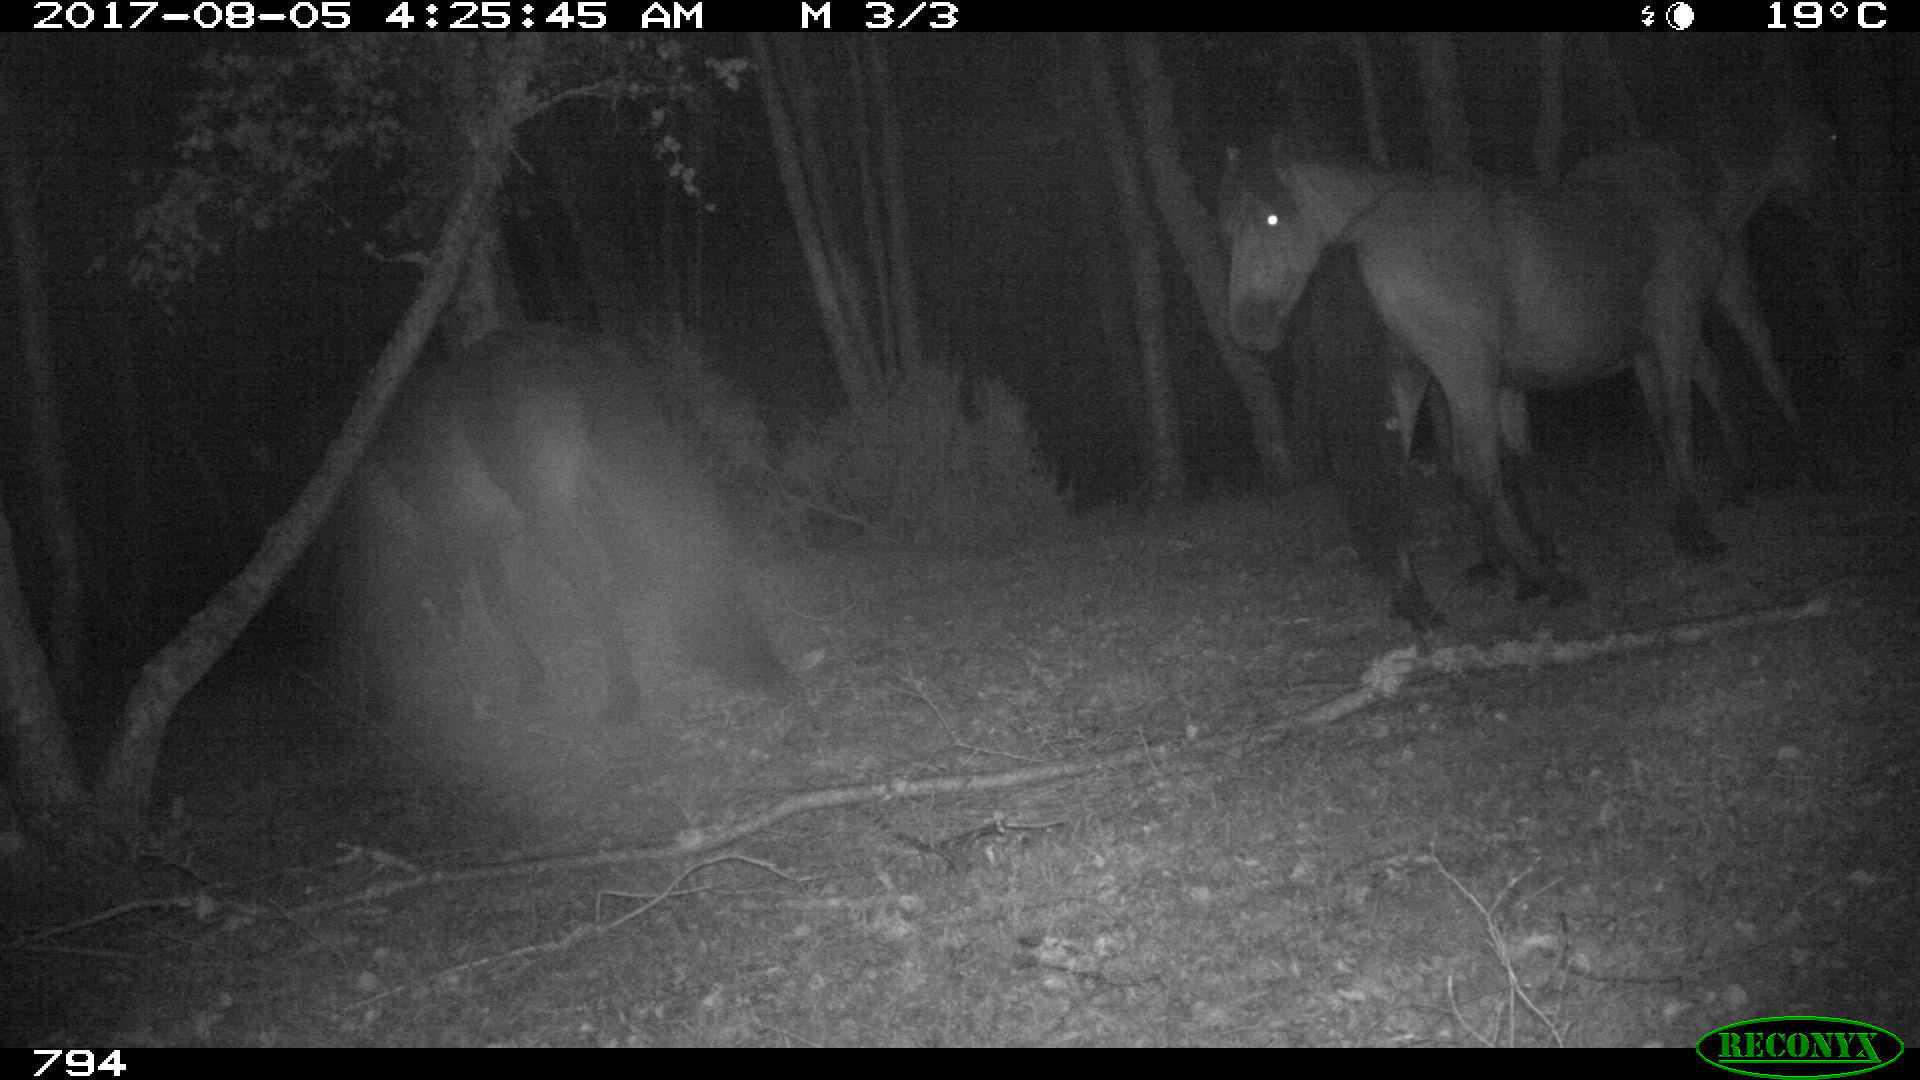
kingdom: Animalia
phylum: Chordata
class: Mammalia
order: Perissodactyla
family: Equidae
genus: Equus
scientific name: Equus caballus
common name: Horse
